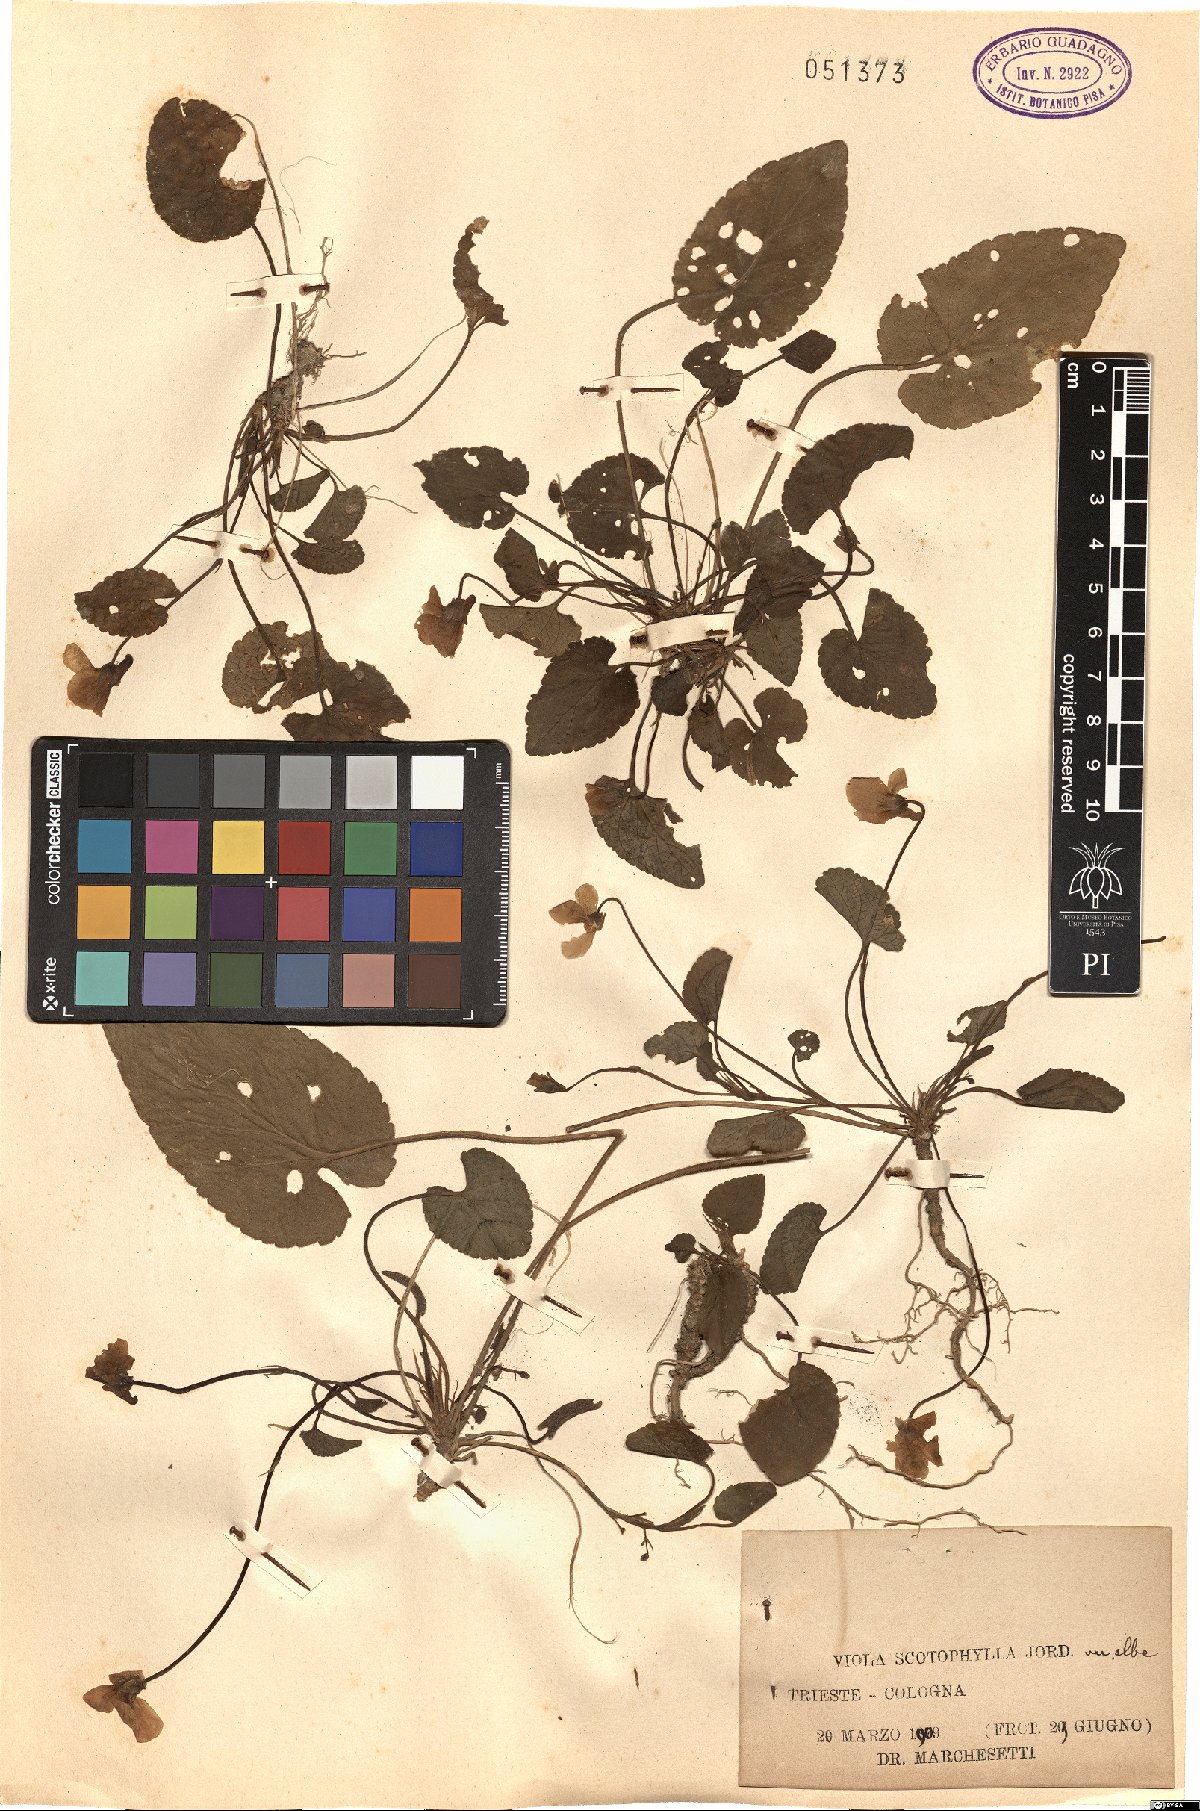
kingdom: Plantae
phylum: Tracheophyta
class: Magnoliopsida
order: Malpighiales
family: Violaceae
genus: Viola
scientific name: Viola alba
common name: White violet
